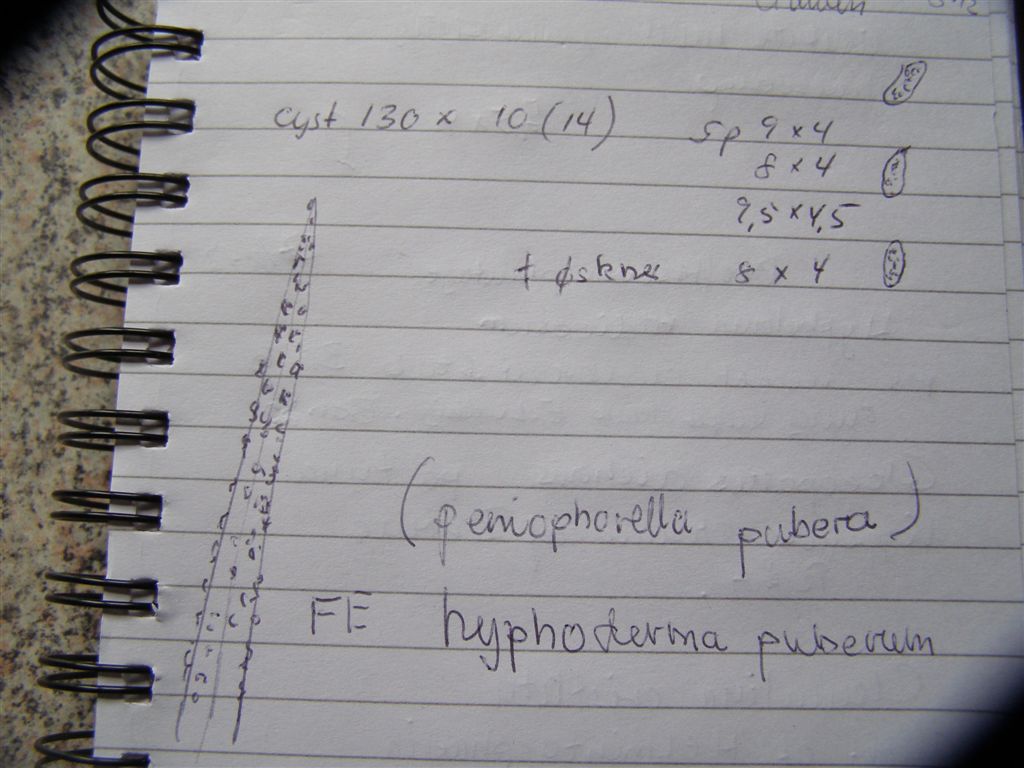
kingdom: Fungi
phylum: Basidiomycota
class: Agaricomycetes
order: Hymenochaetales
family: Rickenellaceae
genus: Peniophorella
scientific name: Peniophorella pubera
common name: dunet kalkskind
